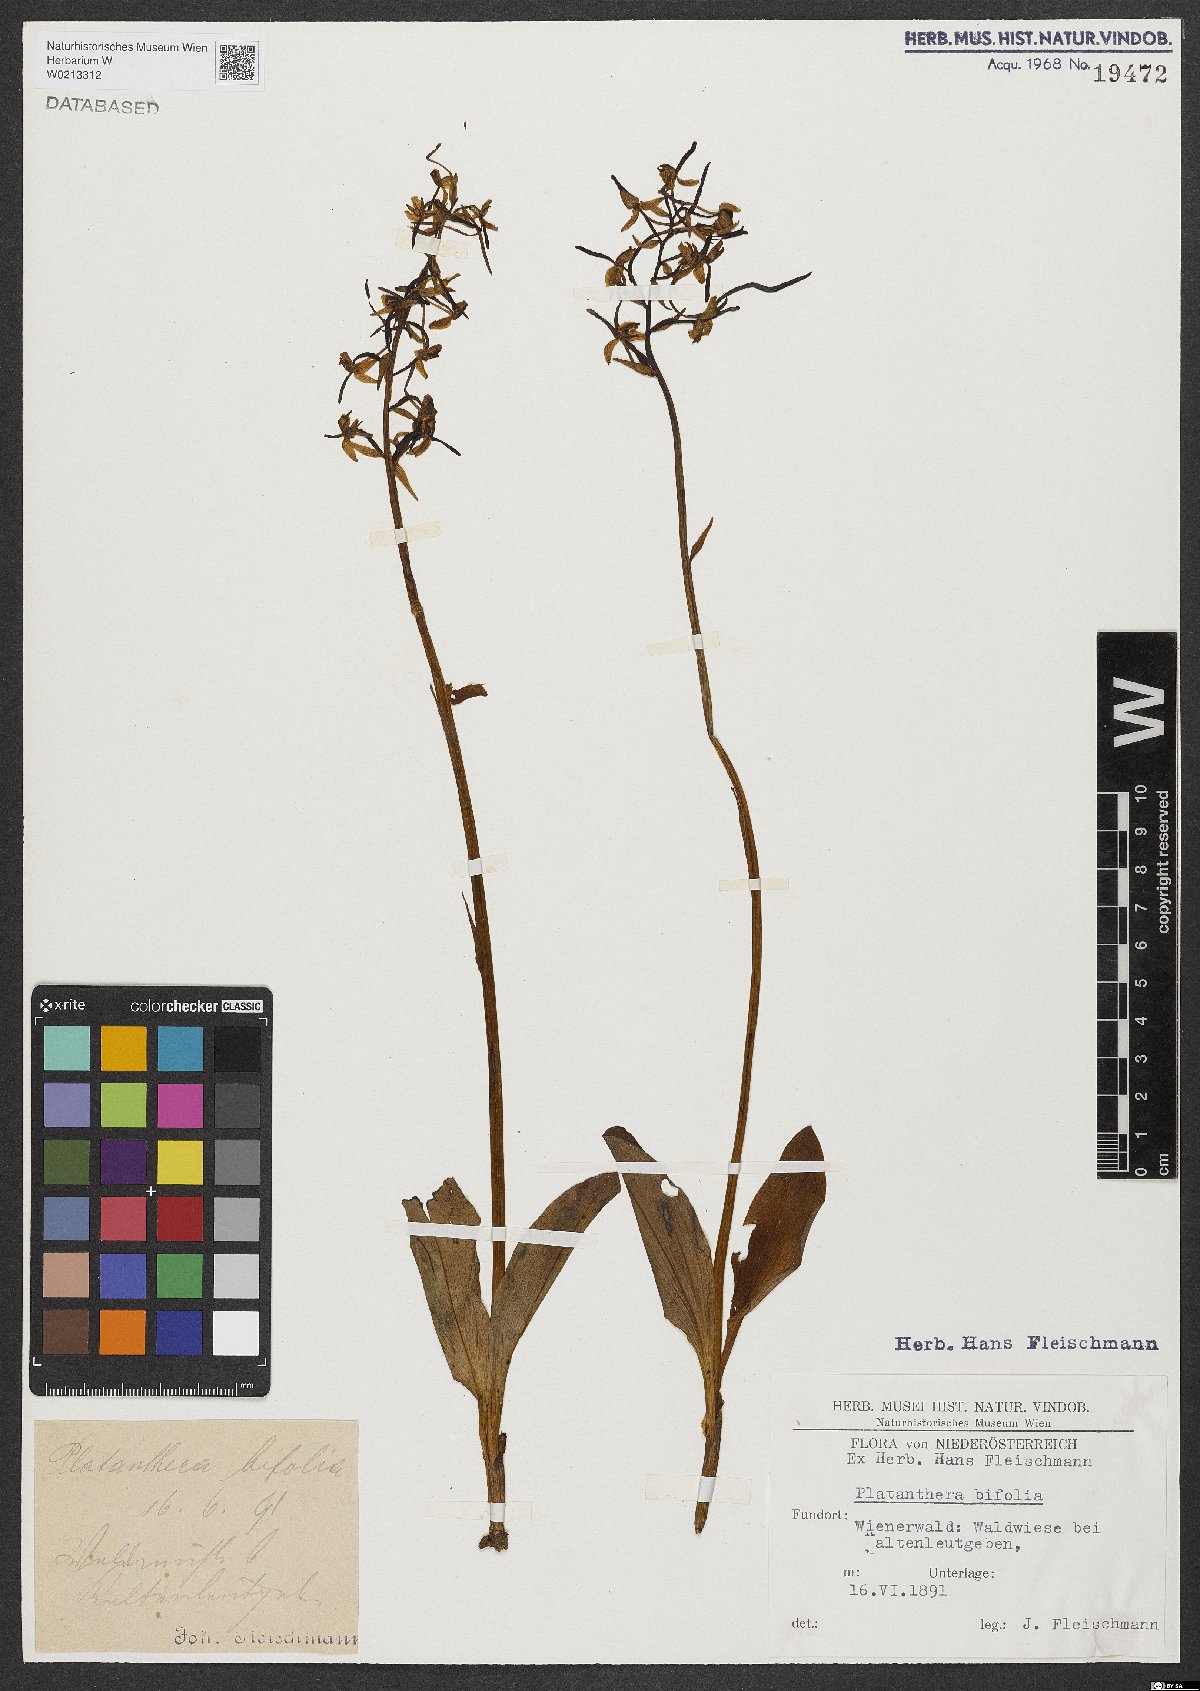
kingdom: Plantae
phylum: Tracheophyta
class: Liliopsida
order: Asparagales
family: Orchidaceae
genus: Platanthera
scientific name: Platanthera bifolia
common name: Lesser butterfly-orchid
